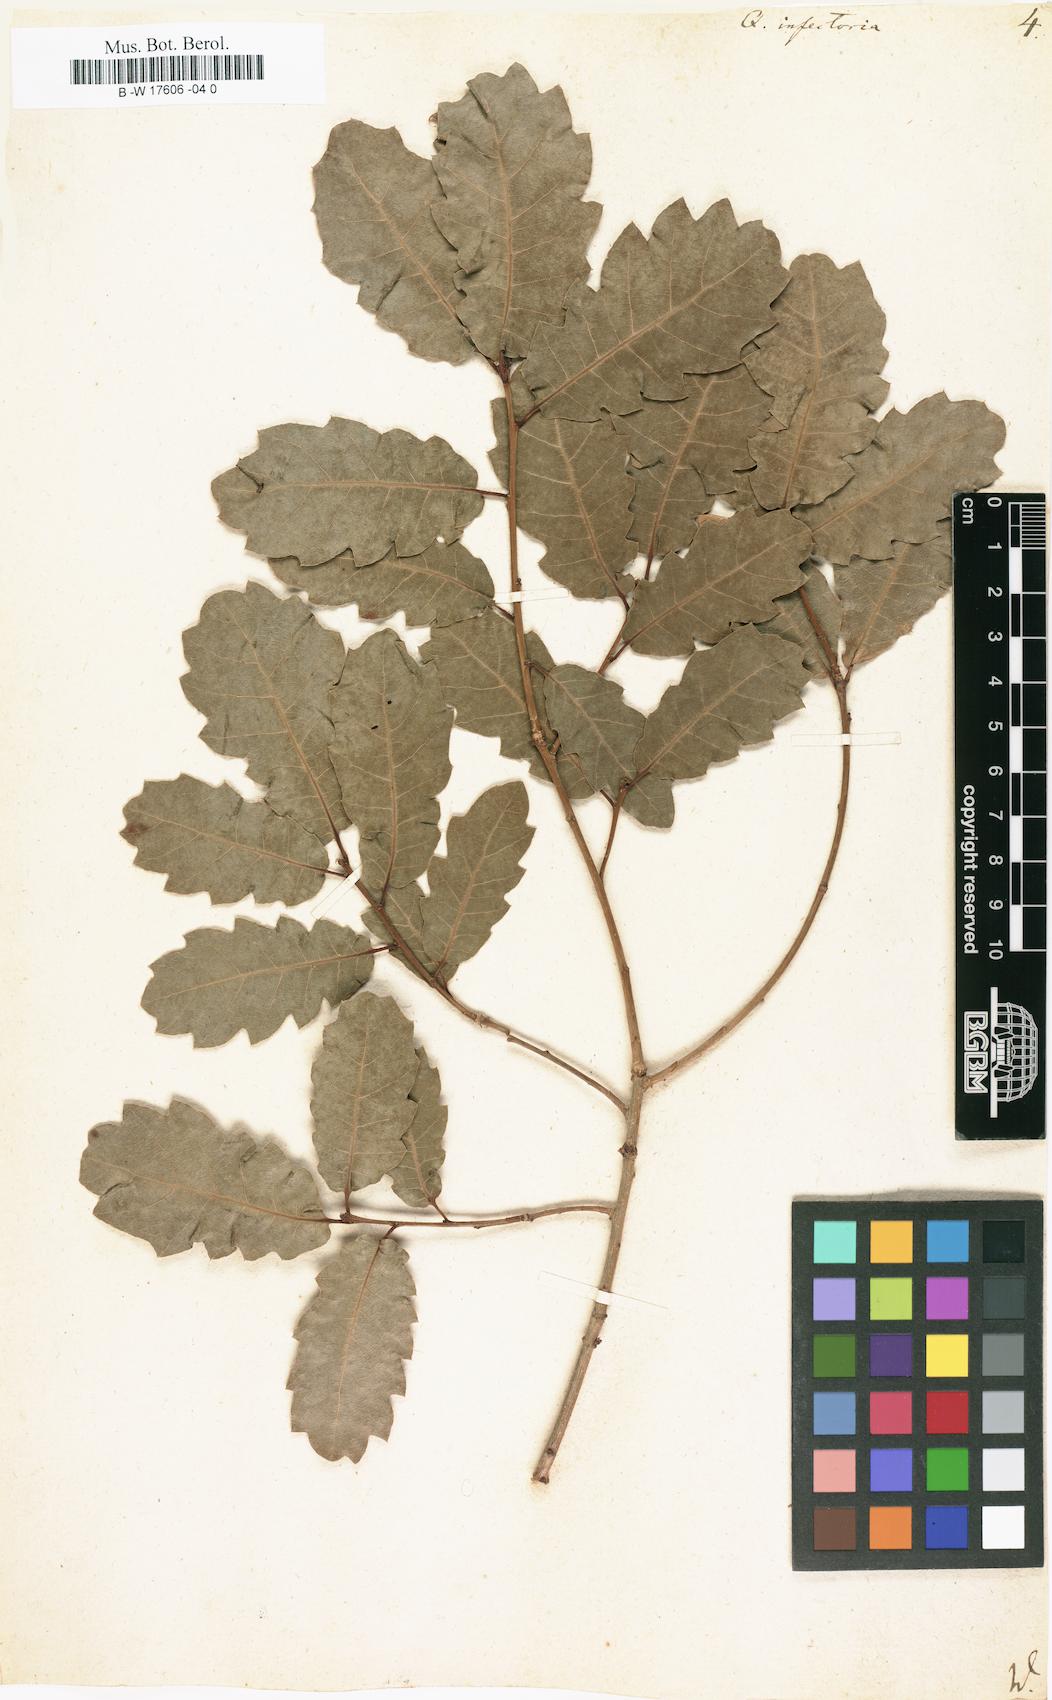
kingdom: Plantae
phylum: Tracheophyta
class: Magnoliopsida
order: Fagales
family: Fagaceae
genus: Quercus
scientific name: Quercus infectoria
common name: Aleppo oak
